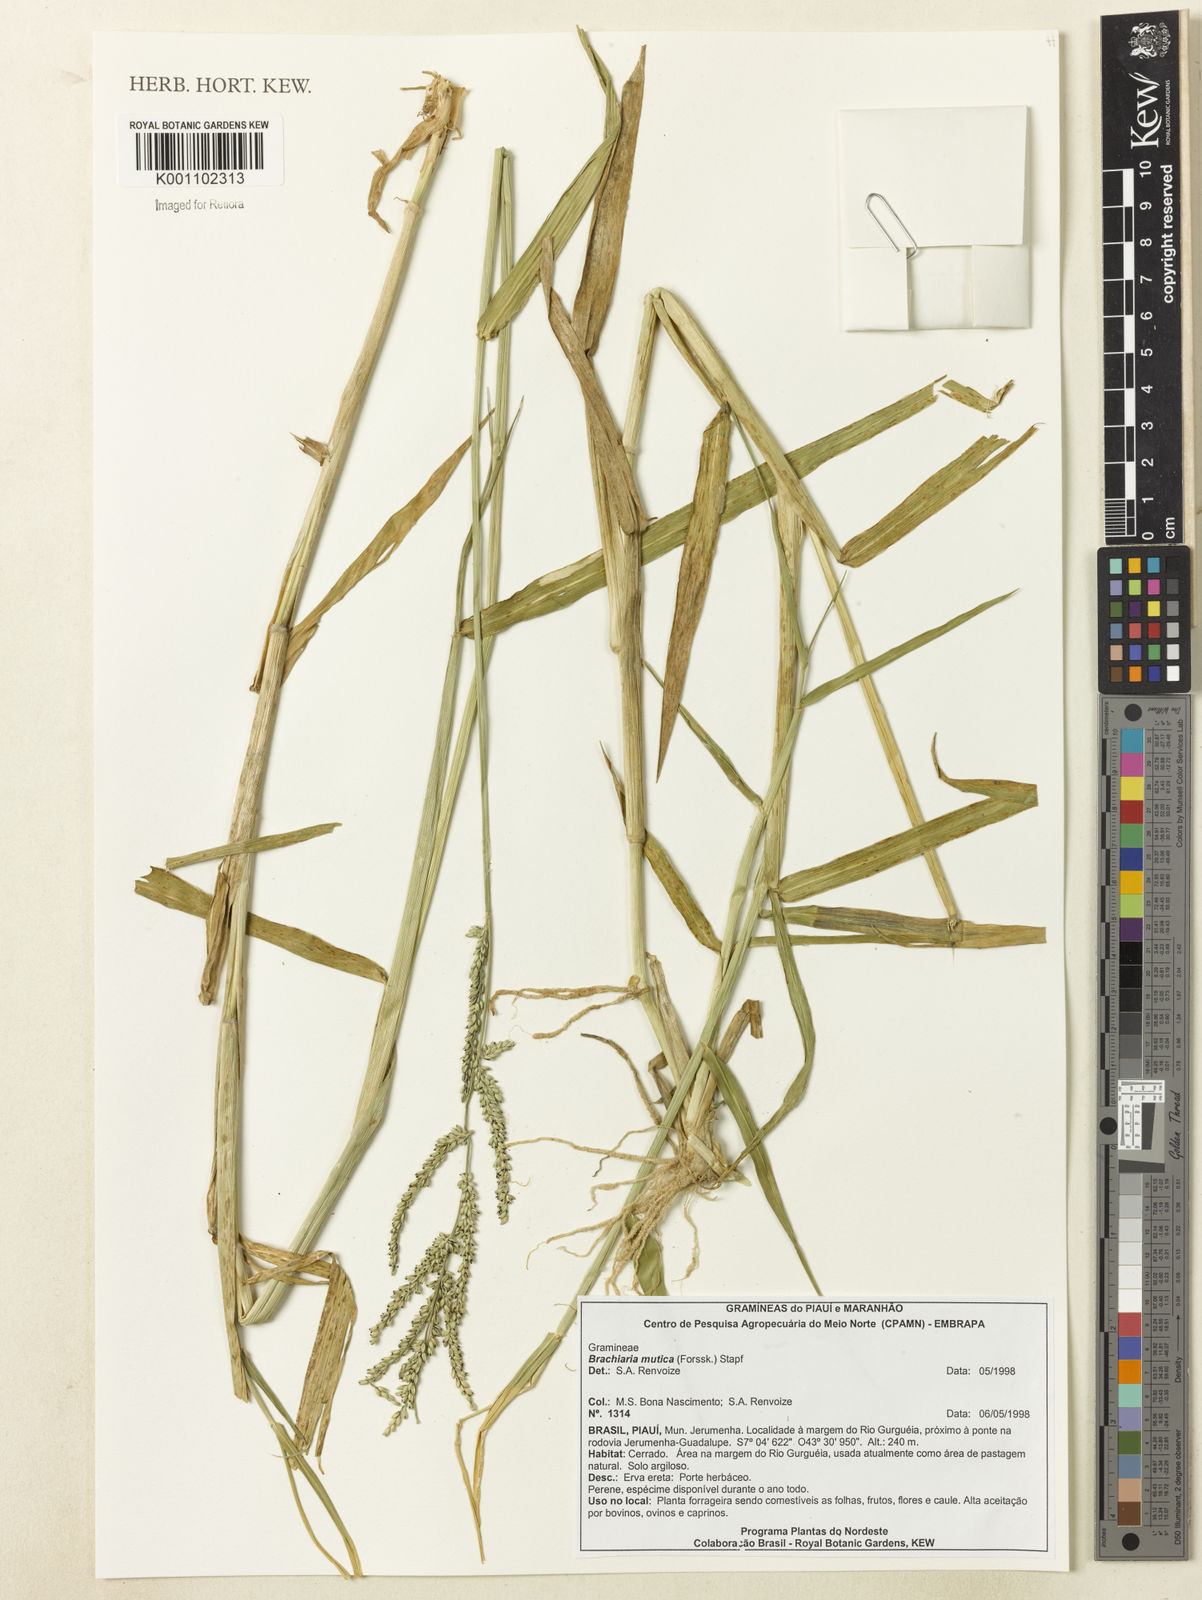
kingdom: Plantae
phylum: Tracheophyta
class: Liliopsida
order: Poales
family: Poaceae
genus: Urochloa
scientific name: Urochloa mutica
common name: Para grass
